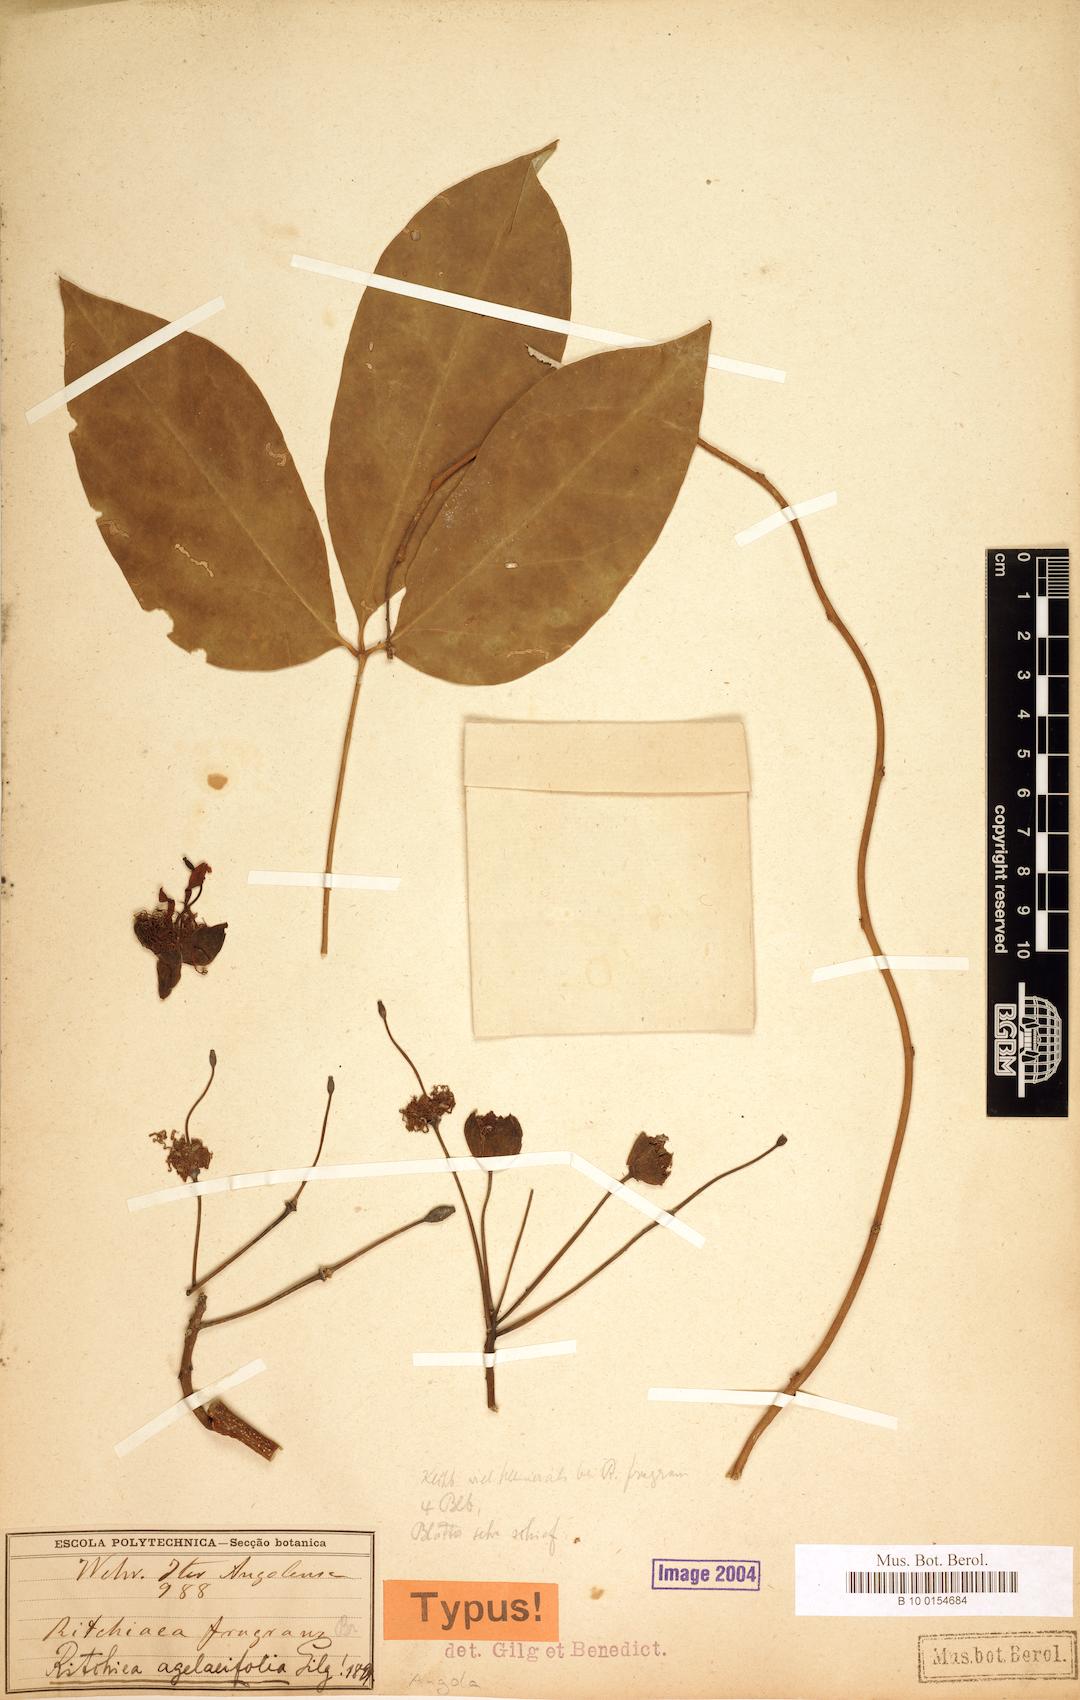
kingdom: Plantae
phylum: Tracheophyta
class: Magnoliopsida
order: Brassicales
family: Capparaceae
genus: Ritchiea
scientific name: Ritchiea agelaeifolia
